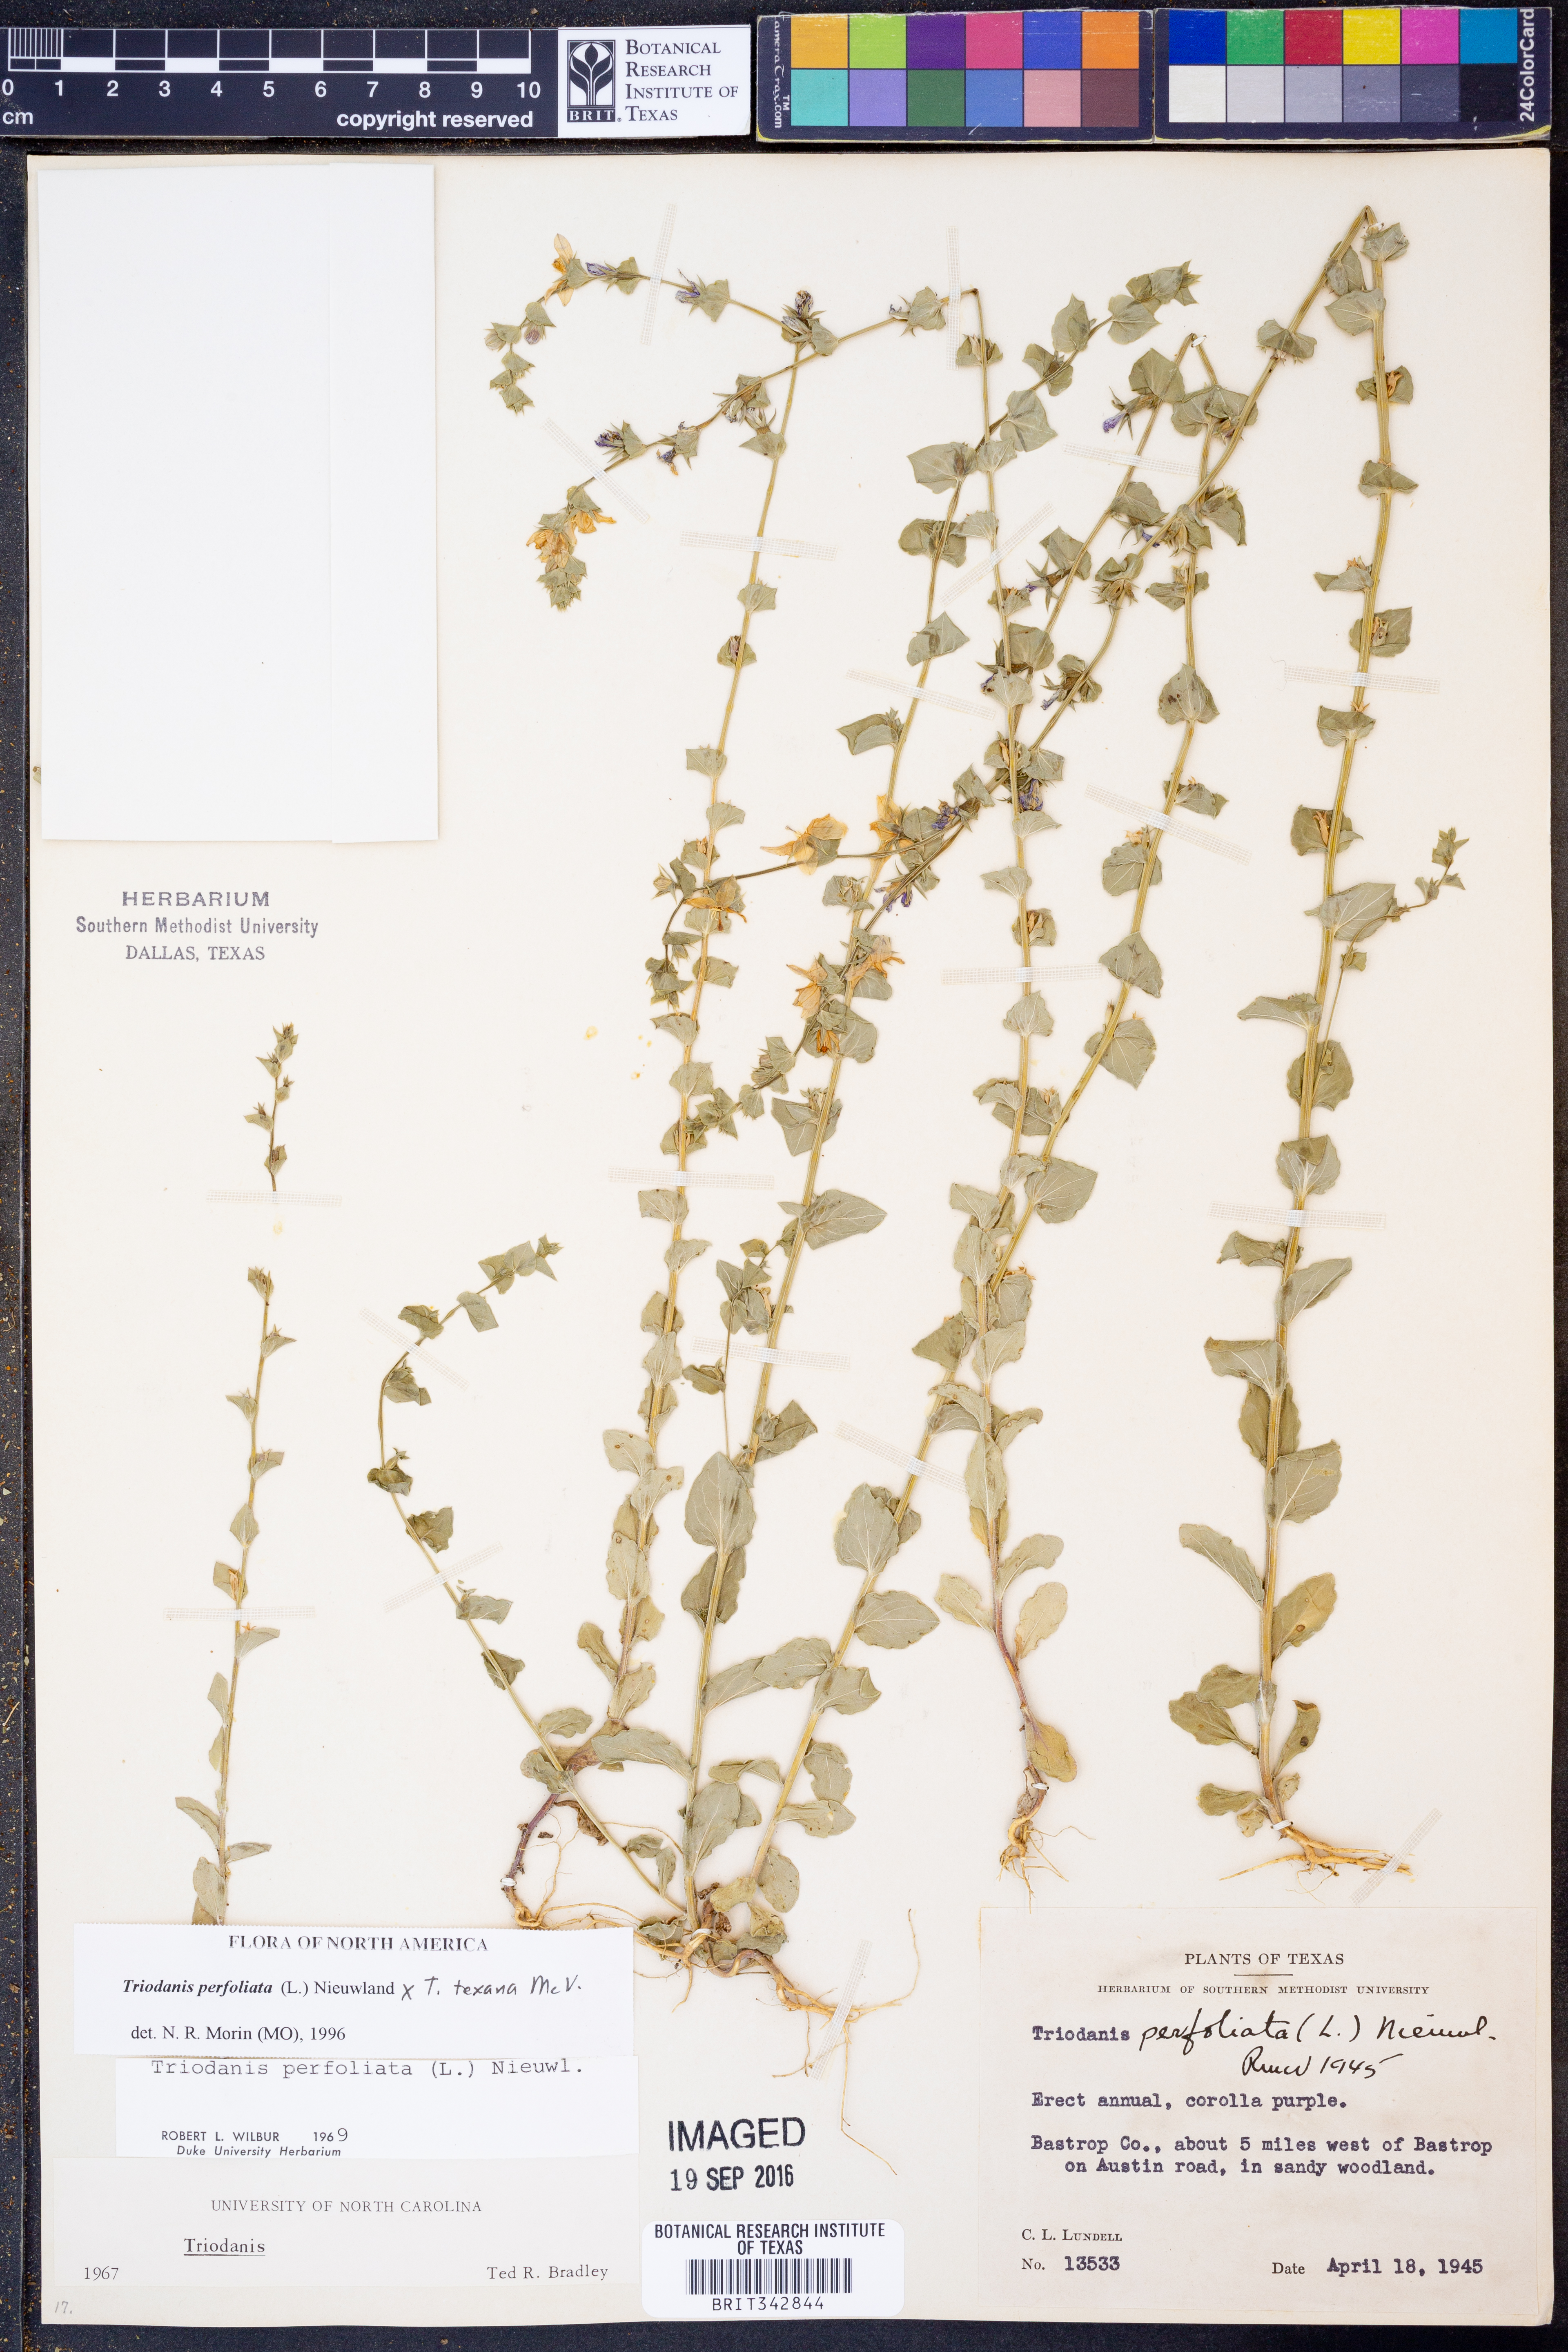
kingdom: Plantae
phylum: Tracheophyta
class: Magnoliopsida
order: Asterales
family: Campanulaceae
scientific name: Campanulaceae
